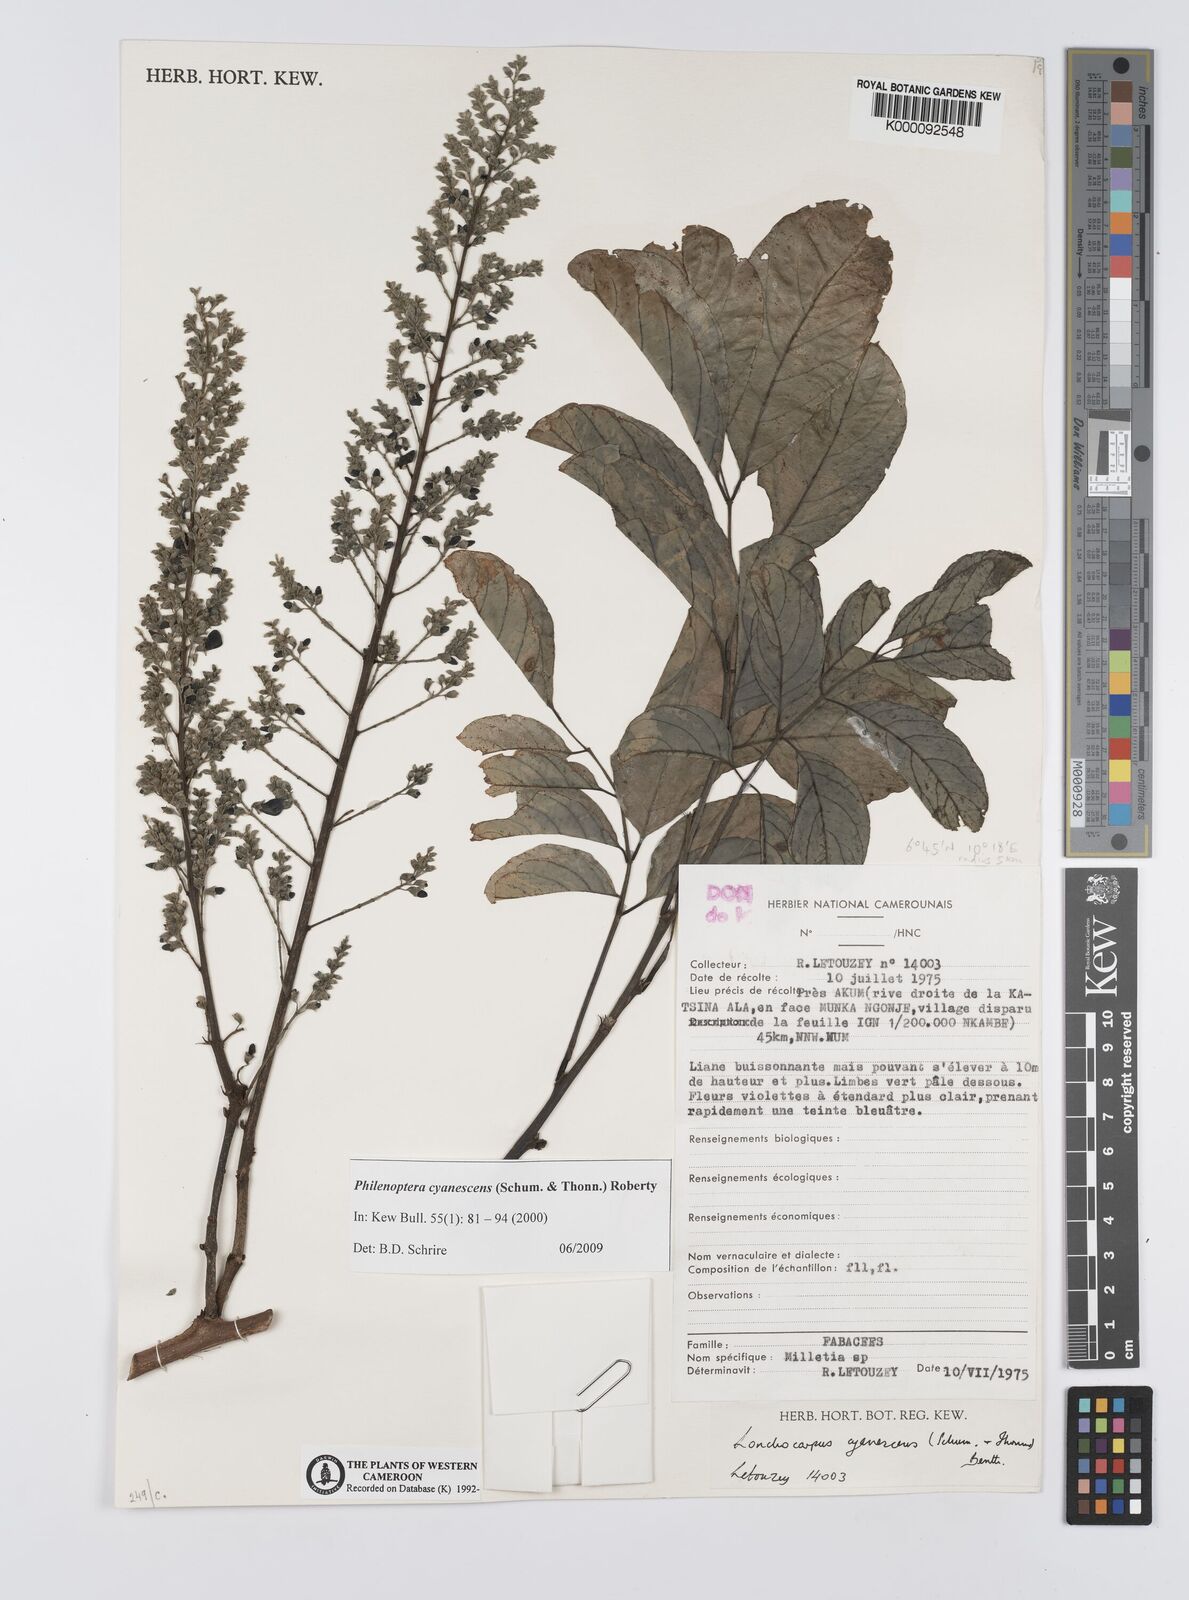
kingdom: Plantae
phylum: Tracheophyta
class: Magnoliopsida
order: Fabales
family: Fabaceae
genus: Philenoptera
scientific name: Philenoptera cyanescens
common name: West african-indigo
